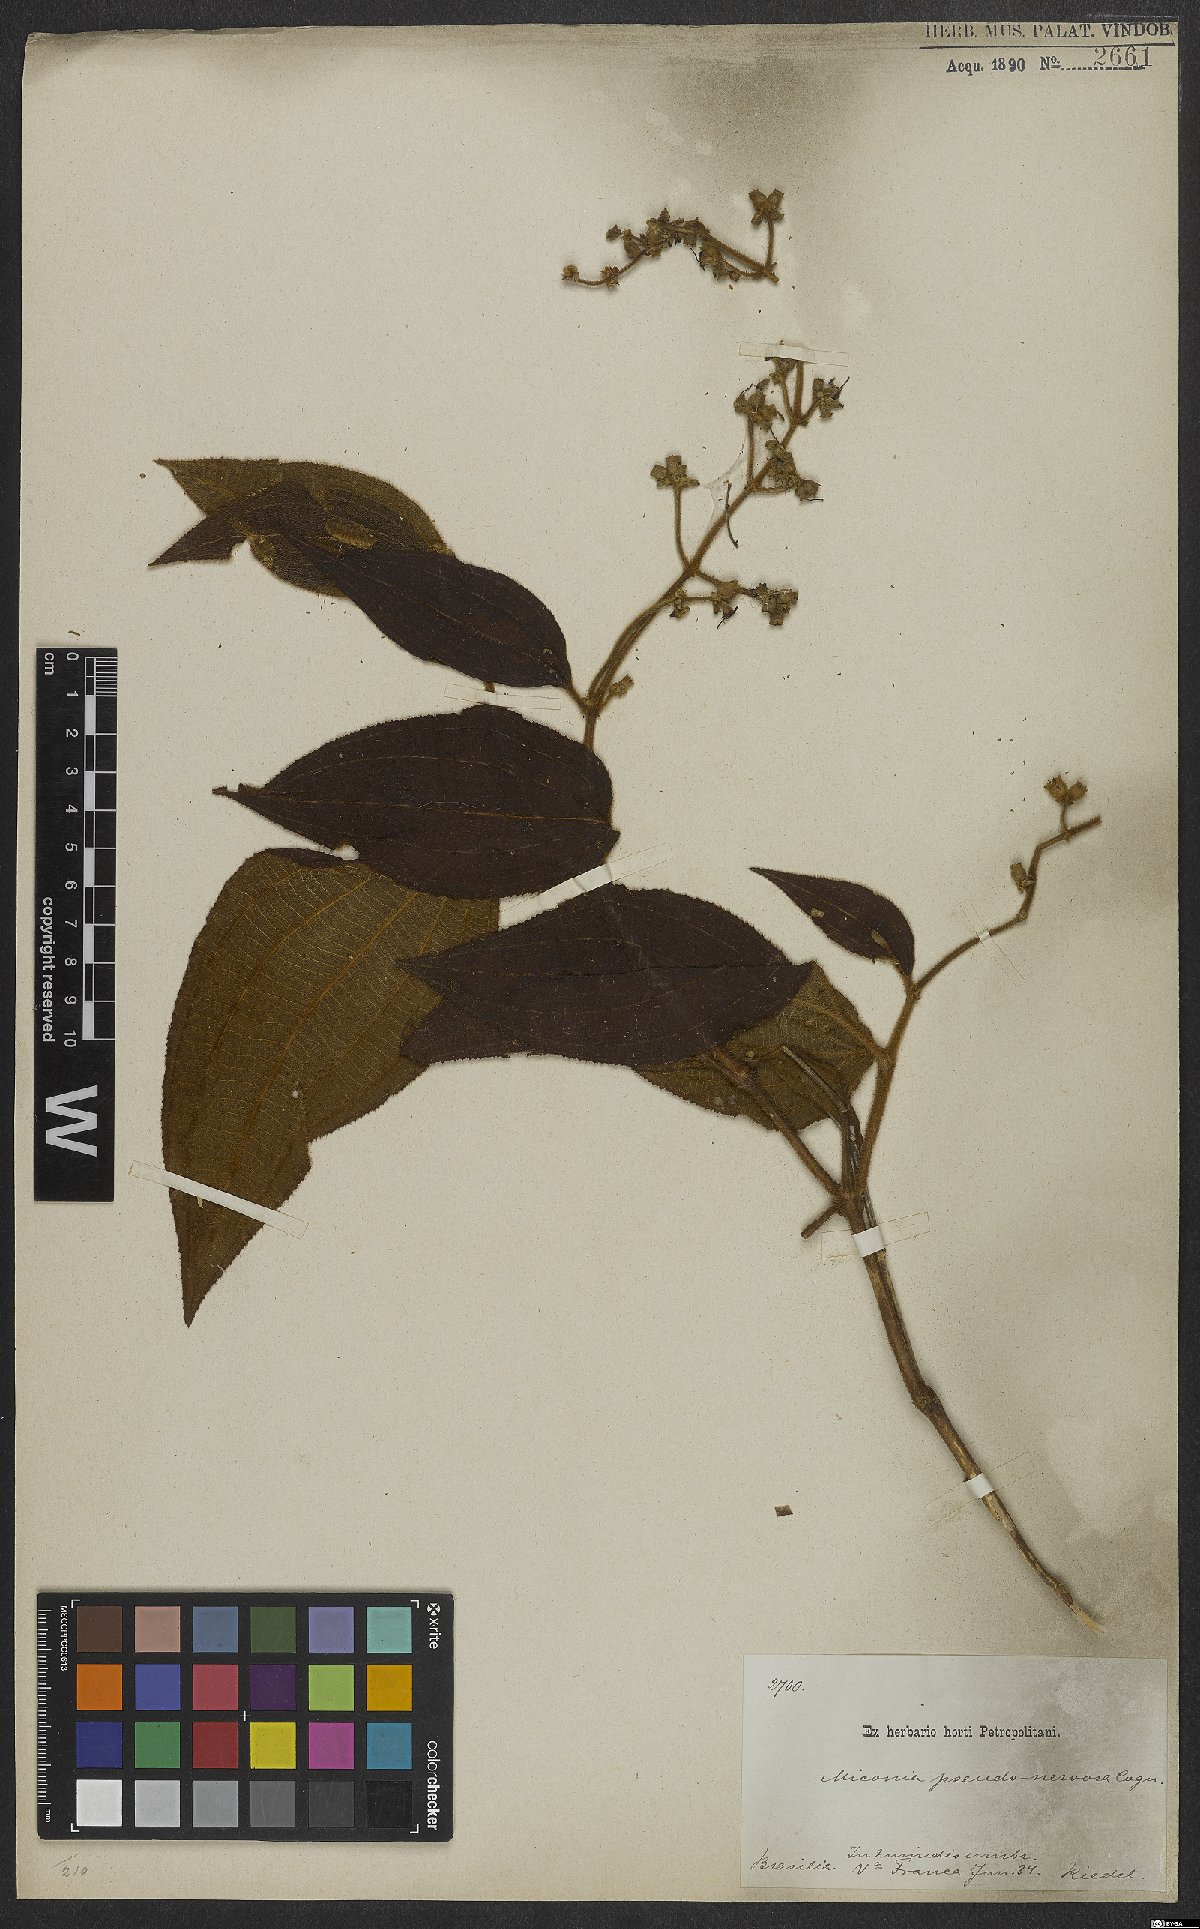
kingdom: Plantae
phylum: Tracheophyta
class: Magnoliopsida
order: Myrtales
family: Melastomataceae
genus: Miconia
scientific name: Miconia pseudonervosa
